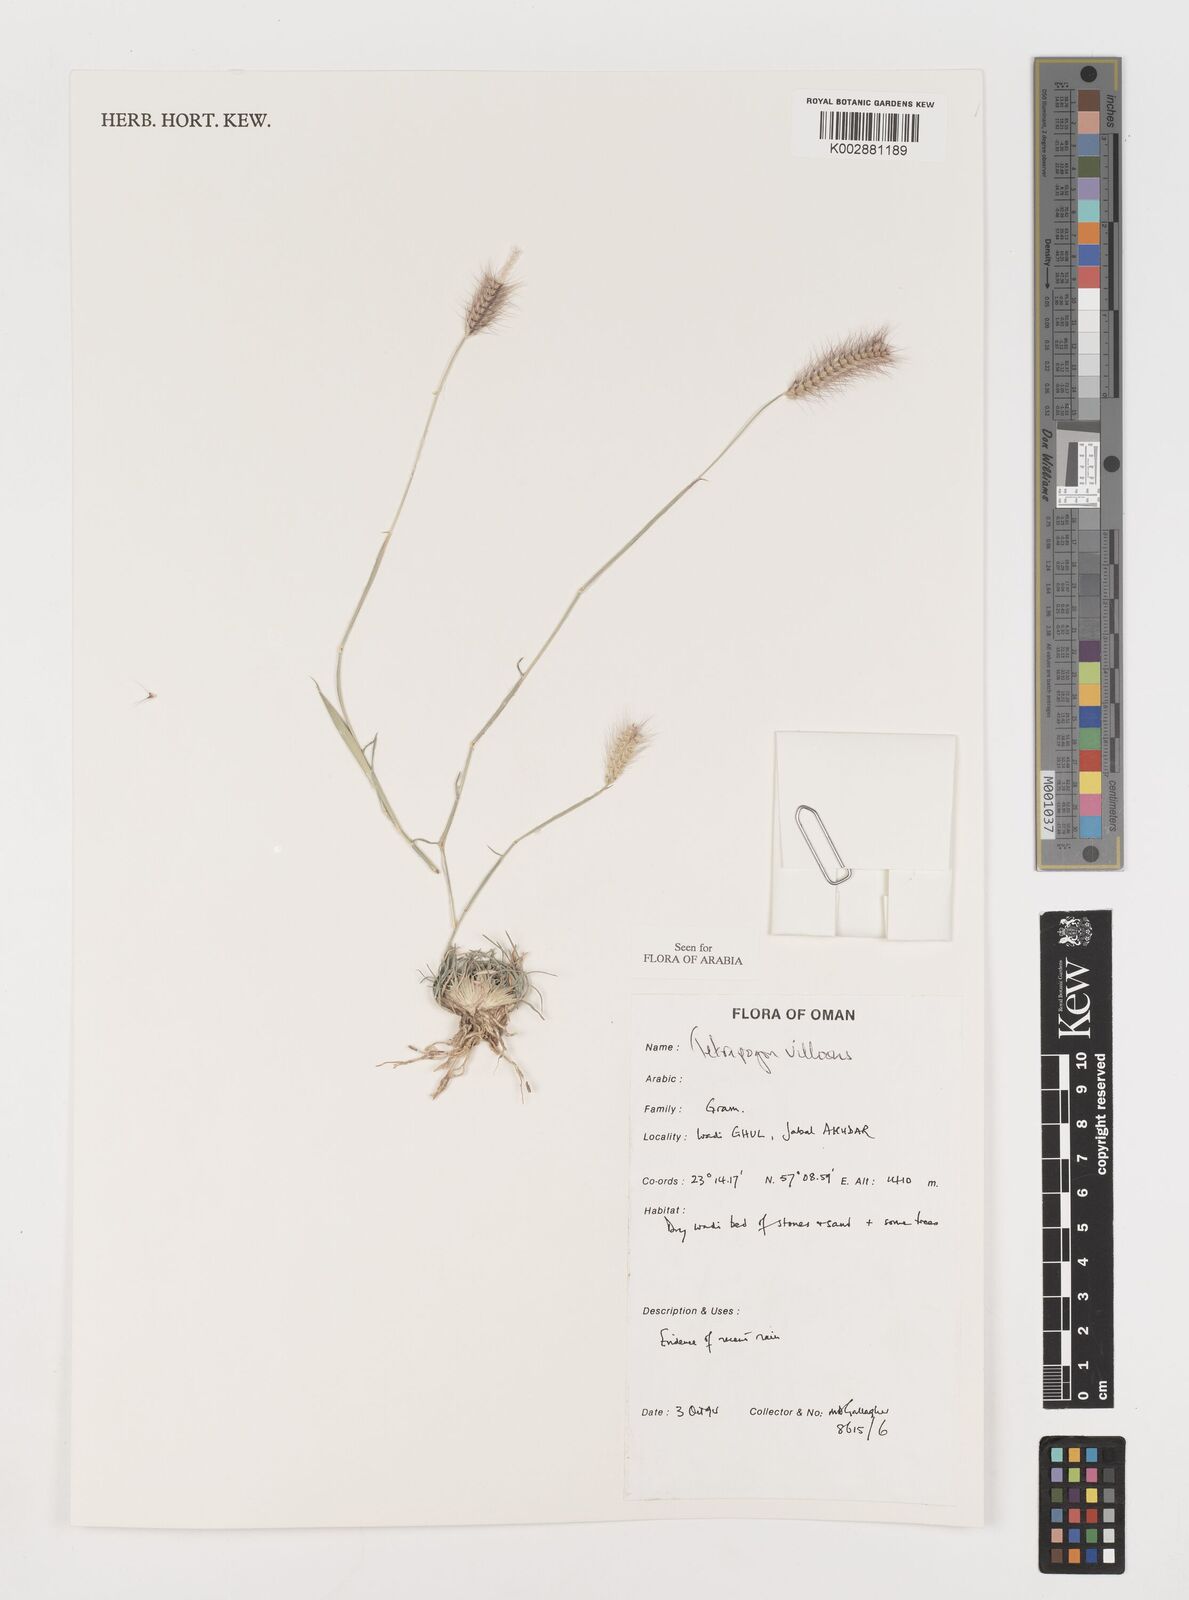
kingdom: Plantae
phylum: Tracheophyta
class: Liliopsida
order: Poales
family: Poaceae
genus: Tetrapogon
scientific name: Tetrapogon villosus
